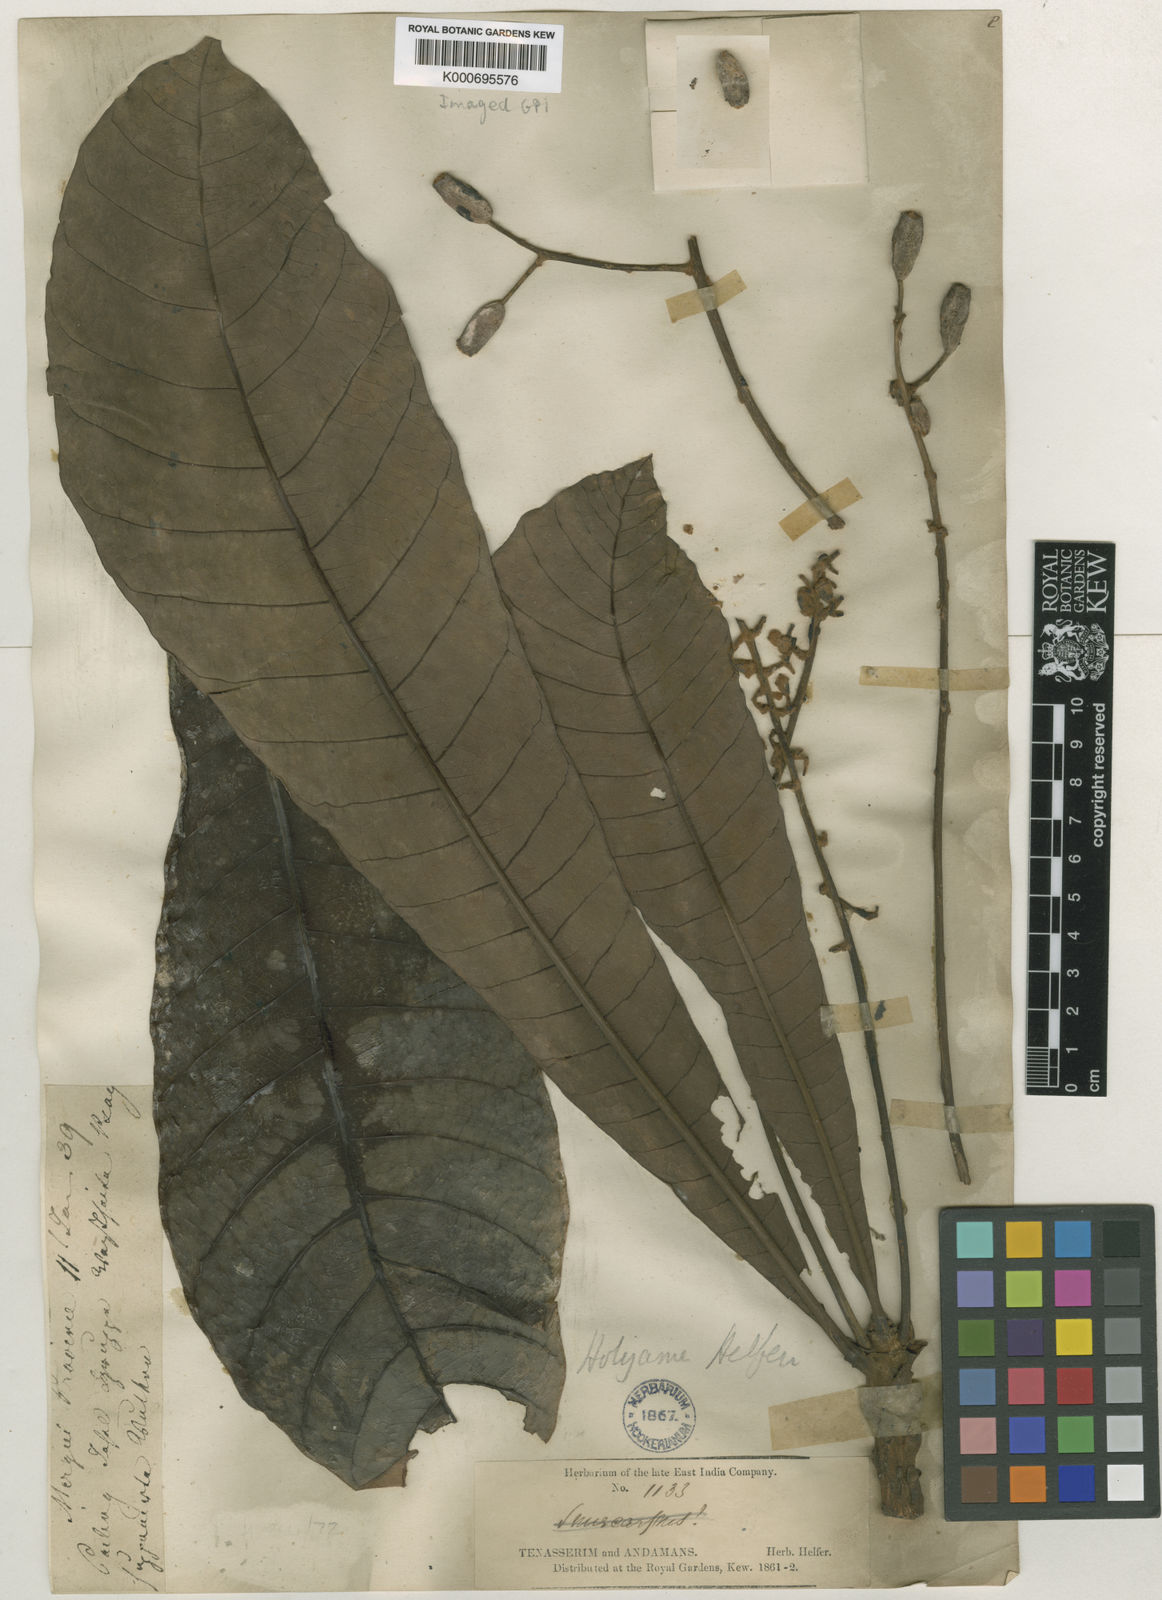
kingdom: Plantae
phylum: Tracheophyta
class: Magnoliopsida
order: Sapindales
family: Anacardiaceae
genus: Holigarna
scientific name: Holigarna helferi
